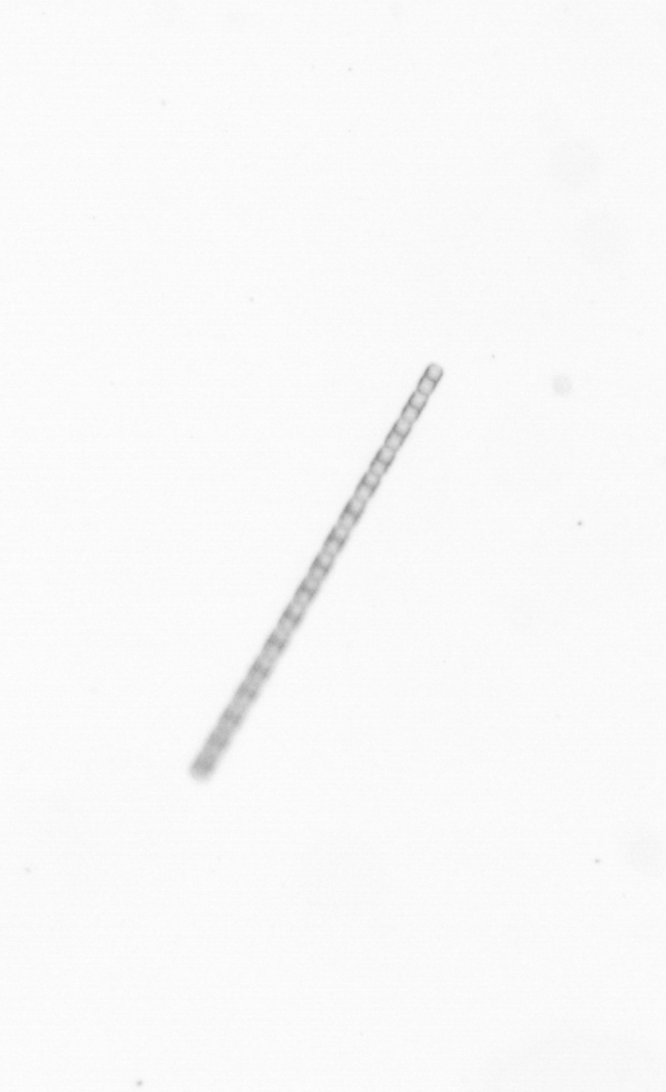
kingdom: Chromista
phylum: Ochrophyta
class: Bacillariophyceae
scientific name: Bacillariophyceae
